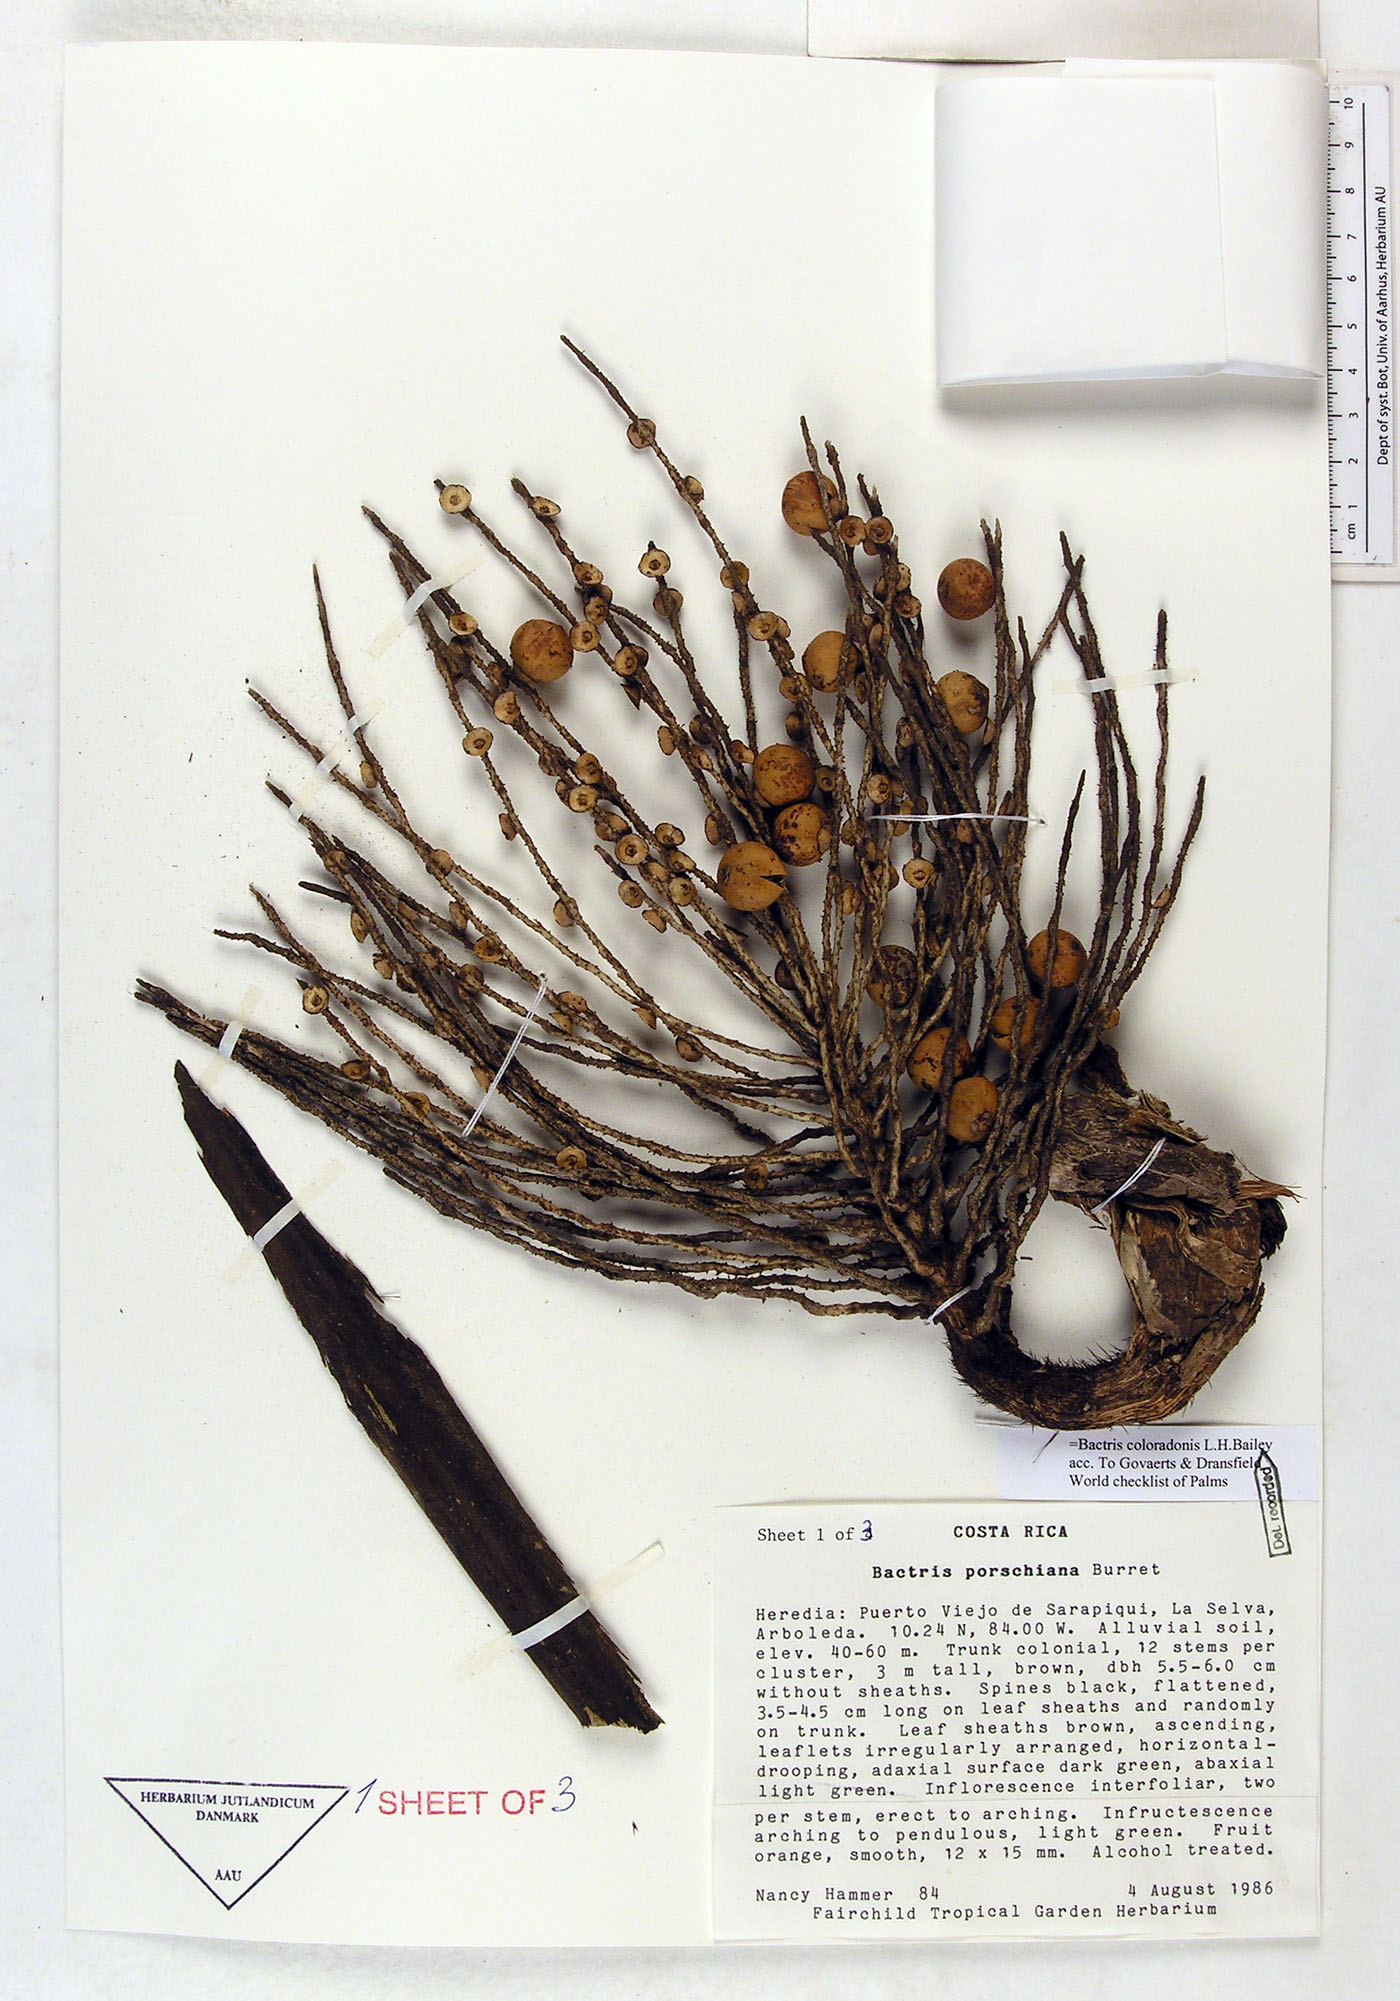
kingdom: Plantae
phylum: Tracheophyta
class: Liliopsida
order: Arecales
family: Arecaceae
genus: Bactris
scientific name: Bactris coloradonis
